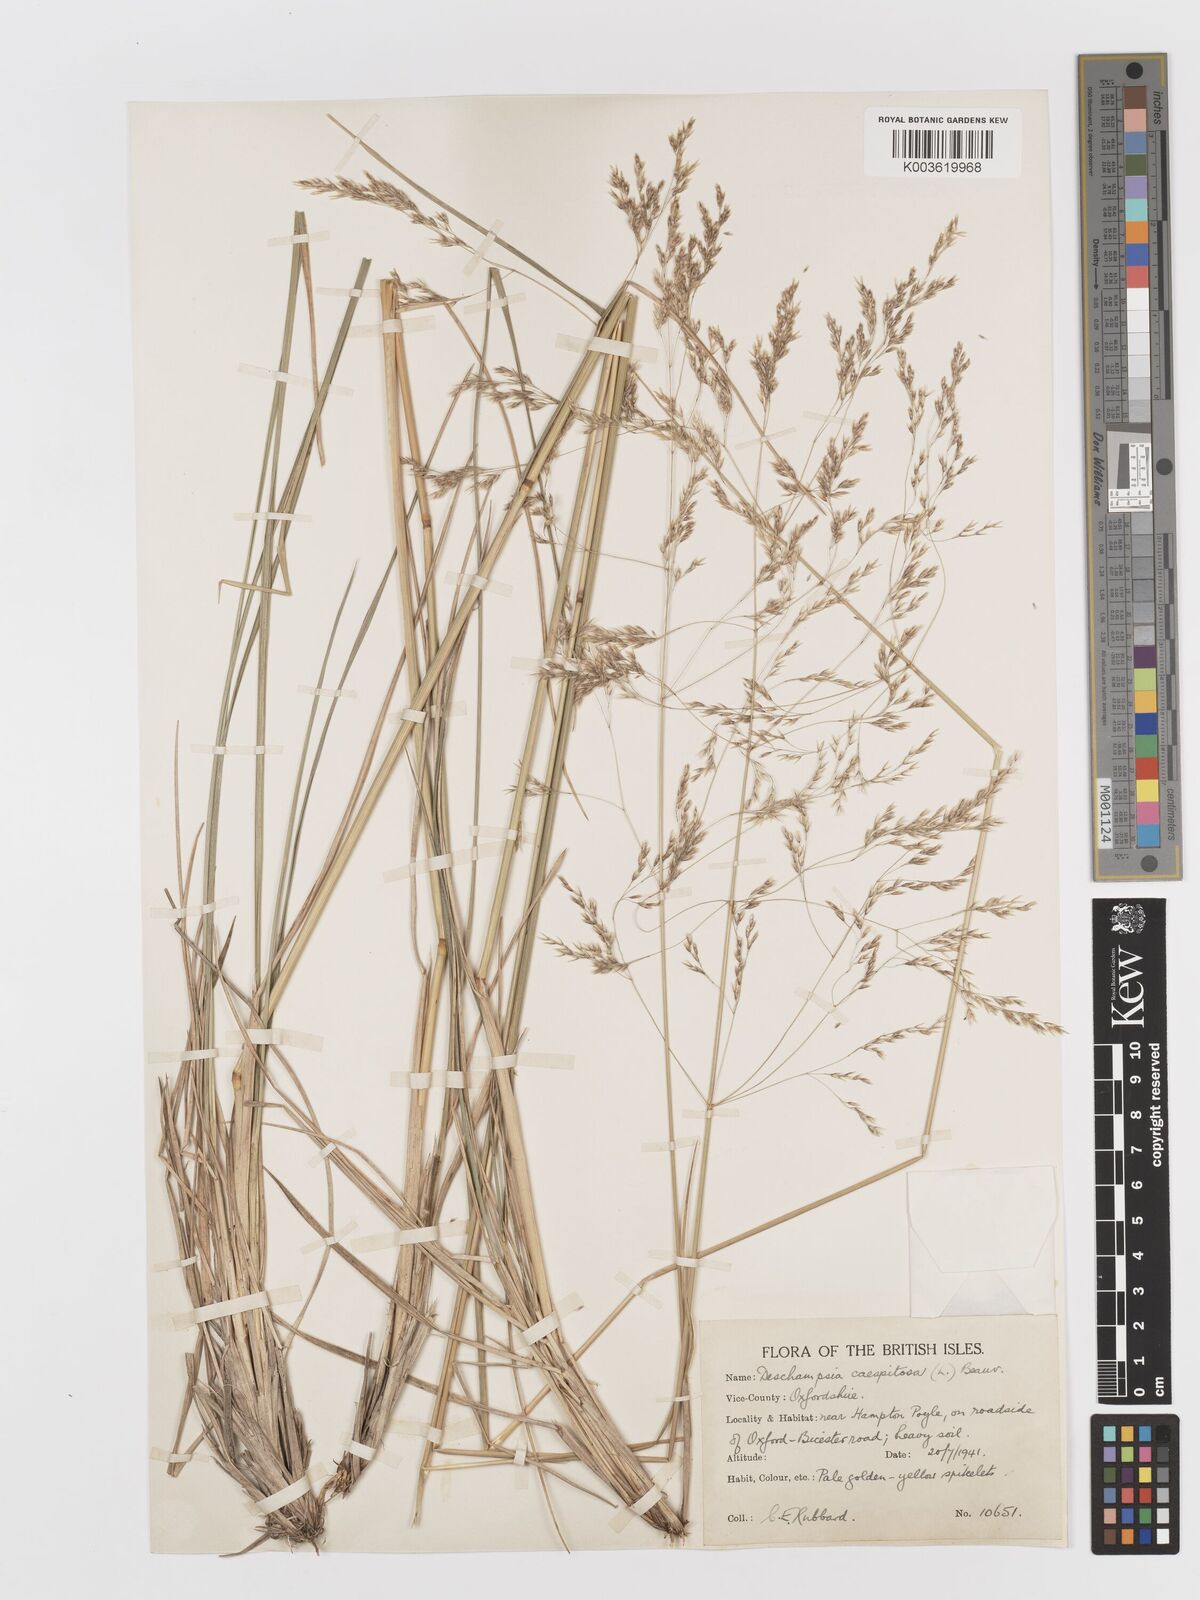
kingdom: Plantae
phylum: Tracheophyta
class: Liliopsida
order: Poales
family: Poaceae
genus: Deschampsia
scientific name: Deschampsia cespitosa
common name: Tufted hair-grass
